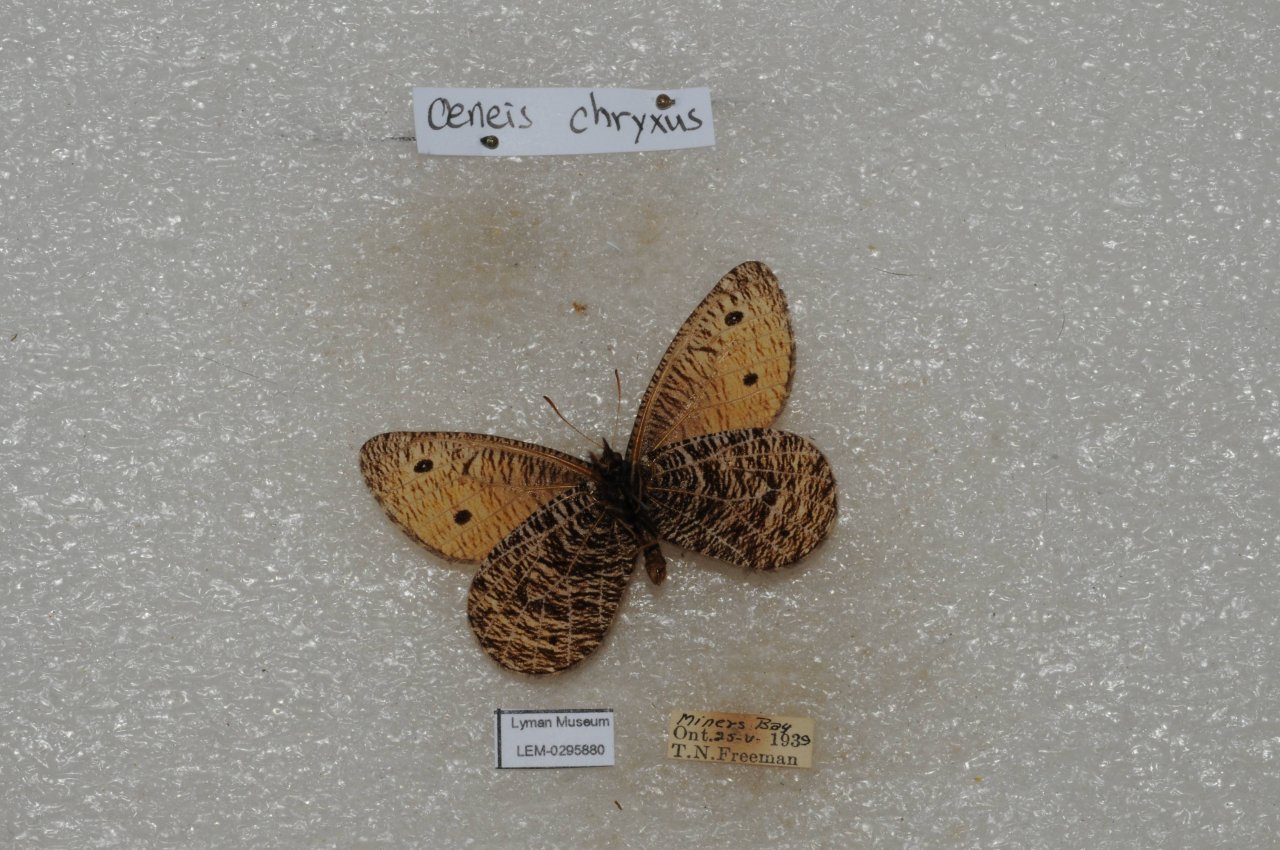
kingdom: Animalia
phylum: Arthropoda
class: Insecta
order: Lepidoptera
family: Nymphalidae
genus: Oeneis
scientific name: Oeneis chryxus
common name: Chryxus Arctic
